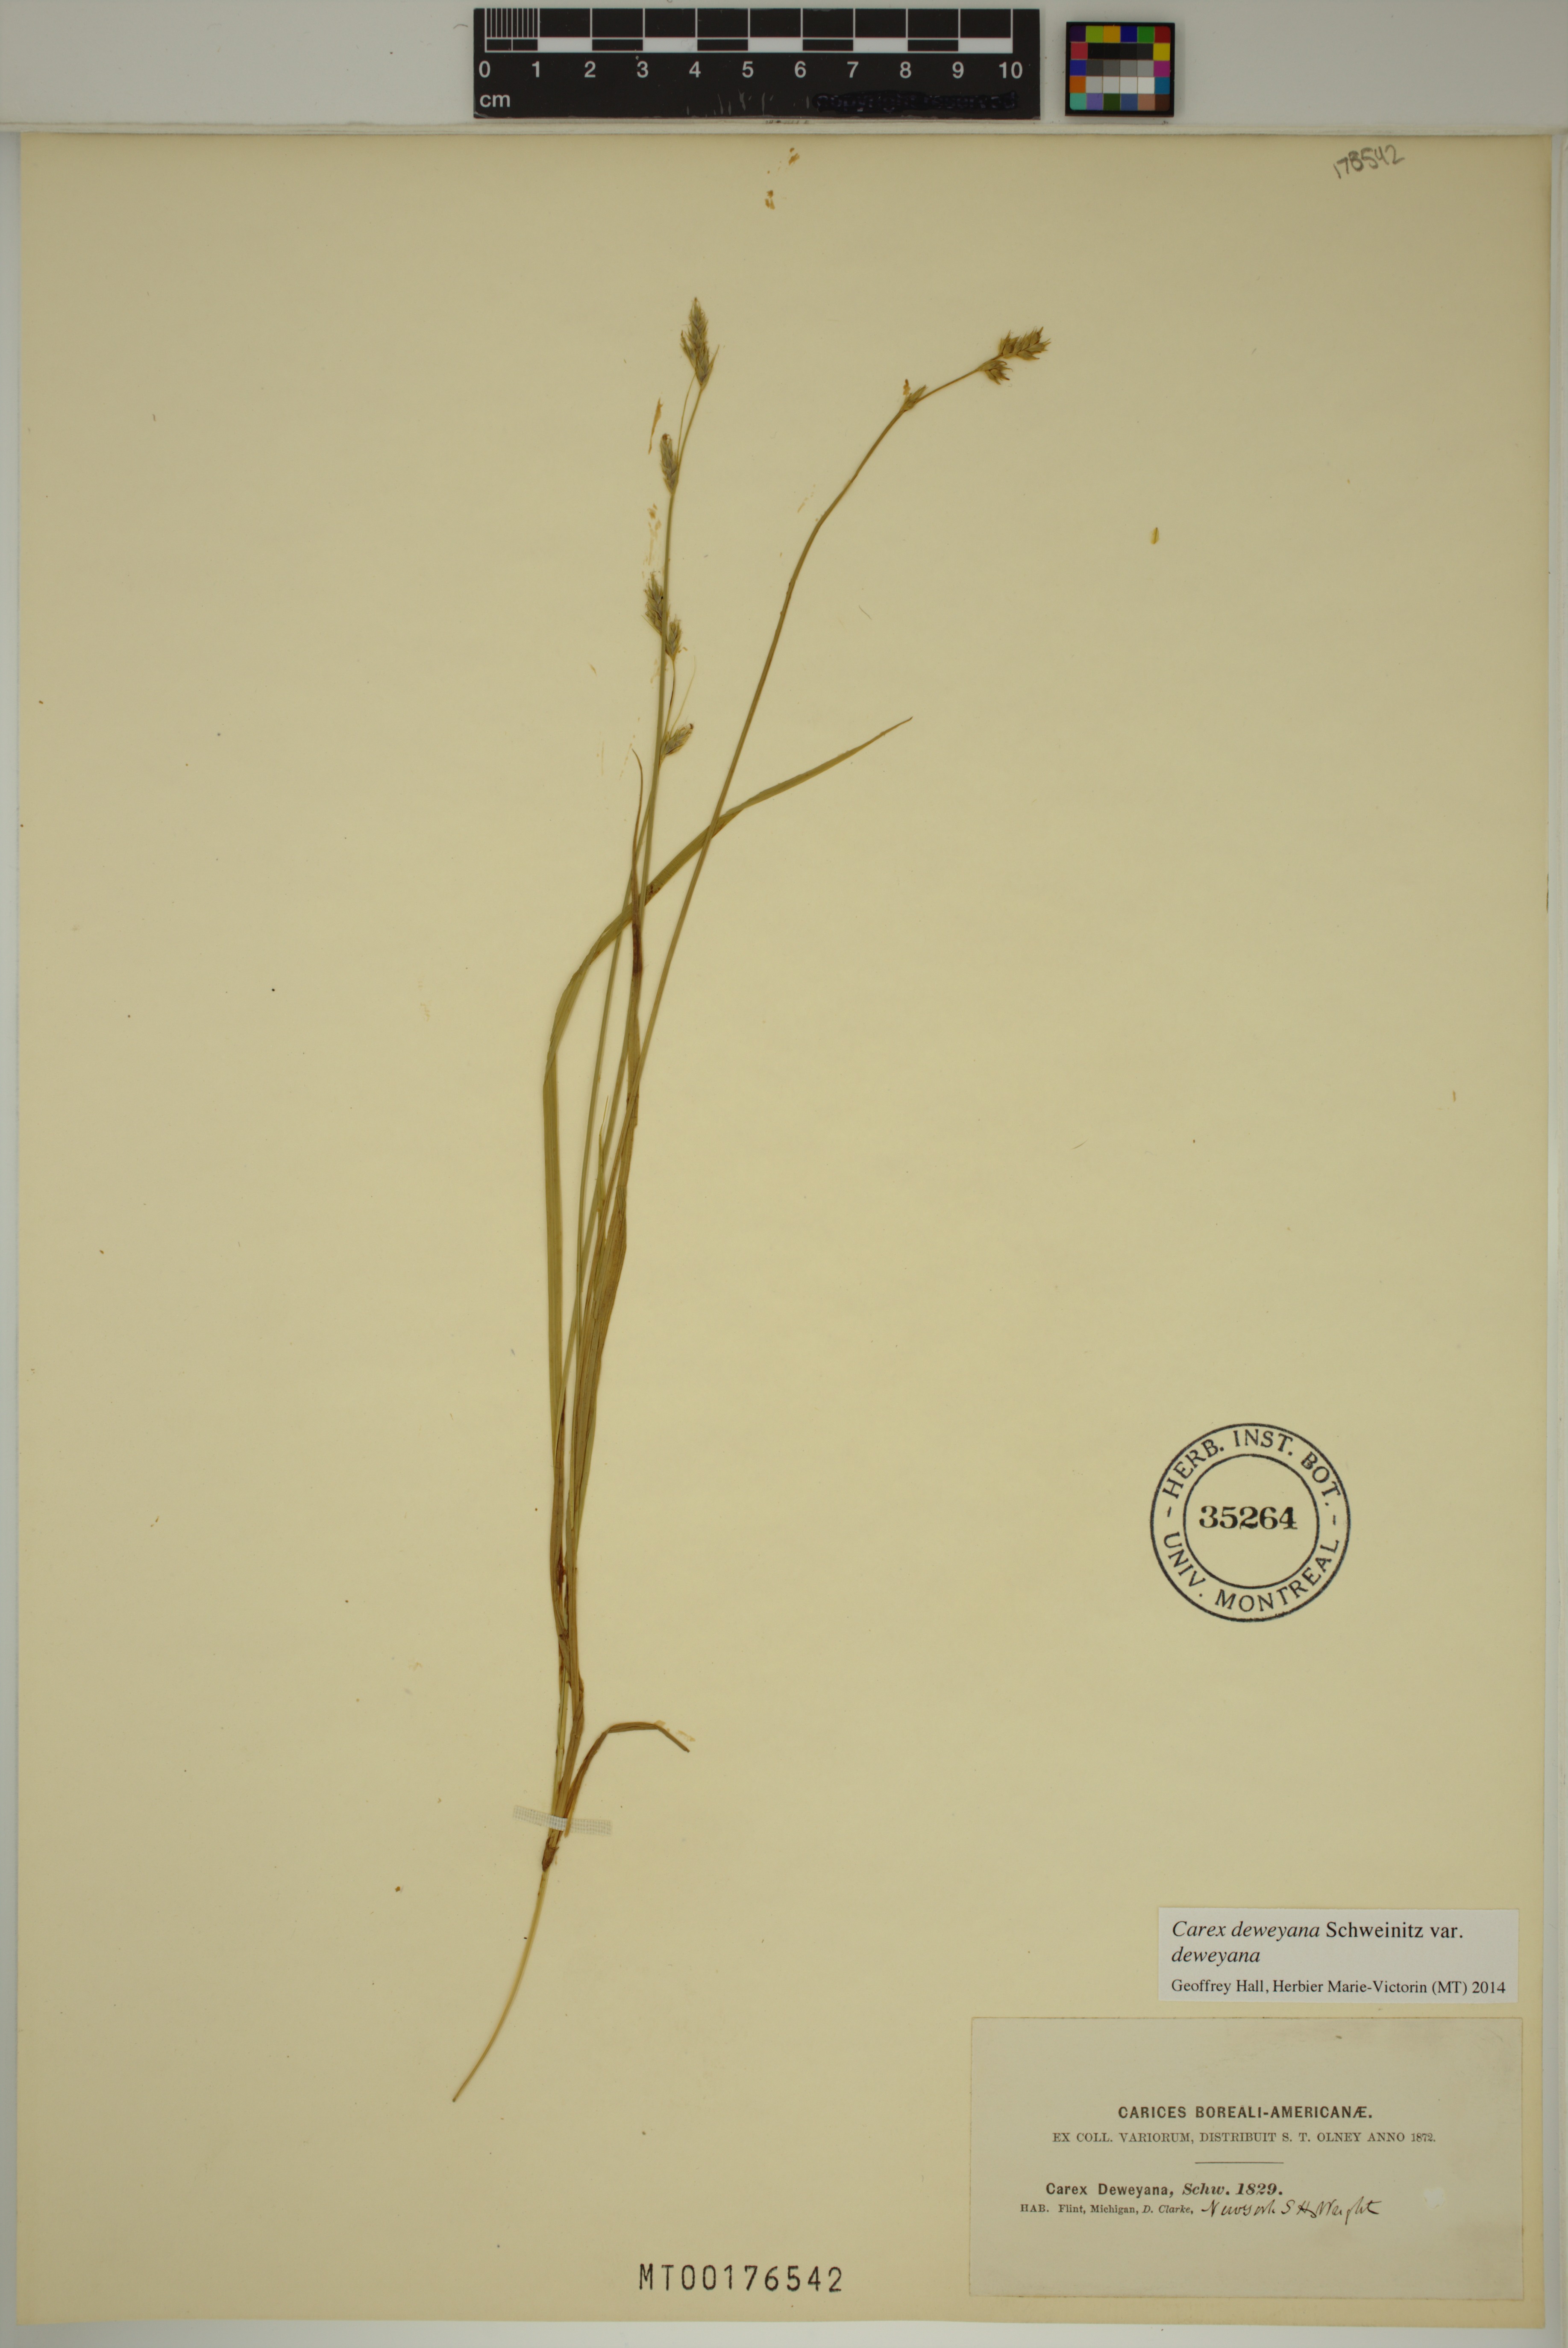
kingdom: Plantae
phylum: Tracheophyta
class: Liliopsida
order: Poales
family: Cyperaceae
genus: Carex
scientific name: Carex deweyana
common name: Dewey's sedge
